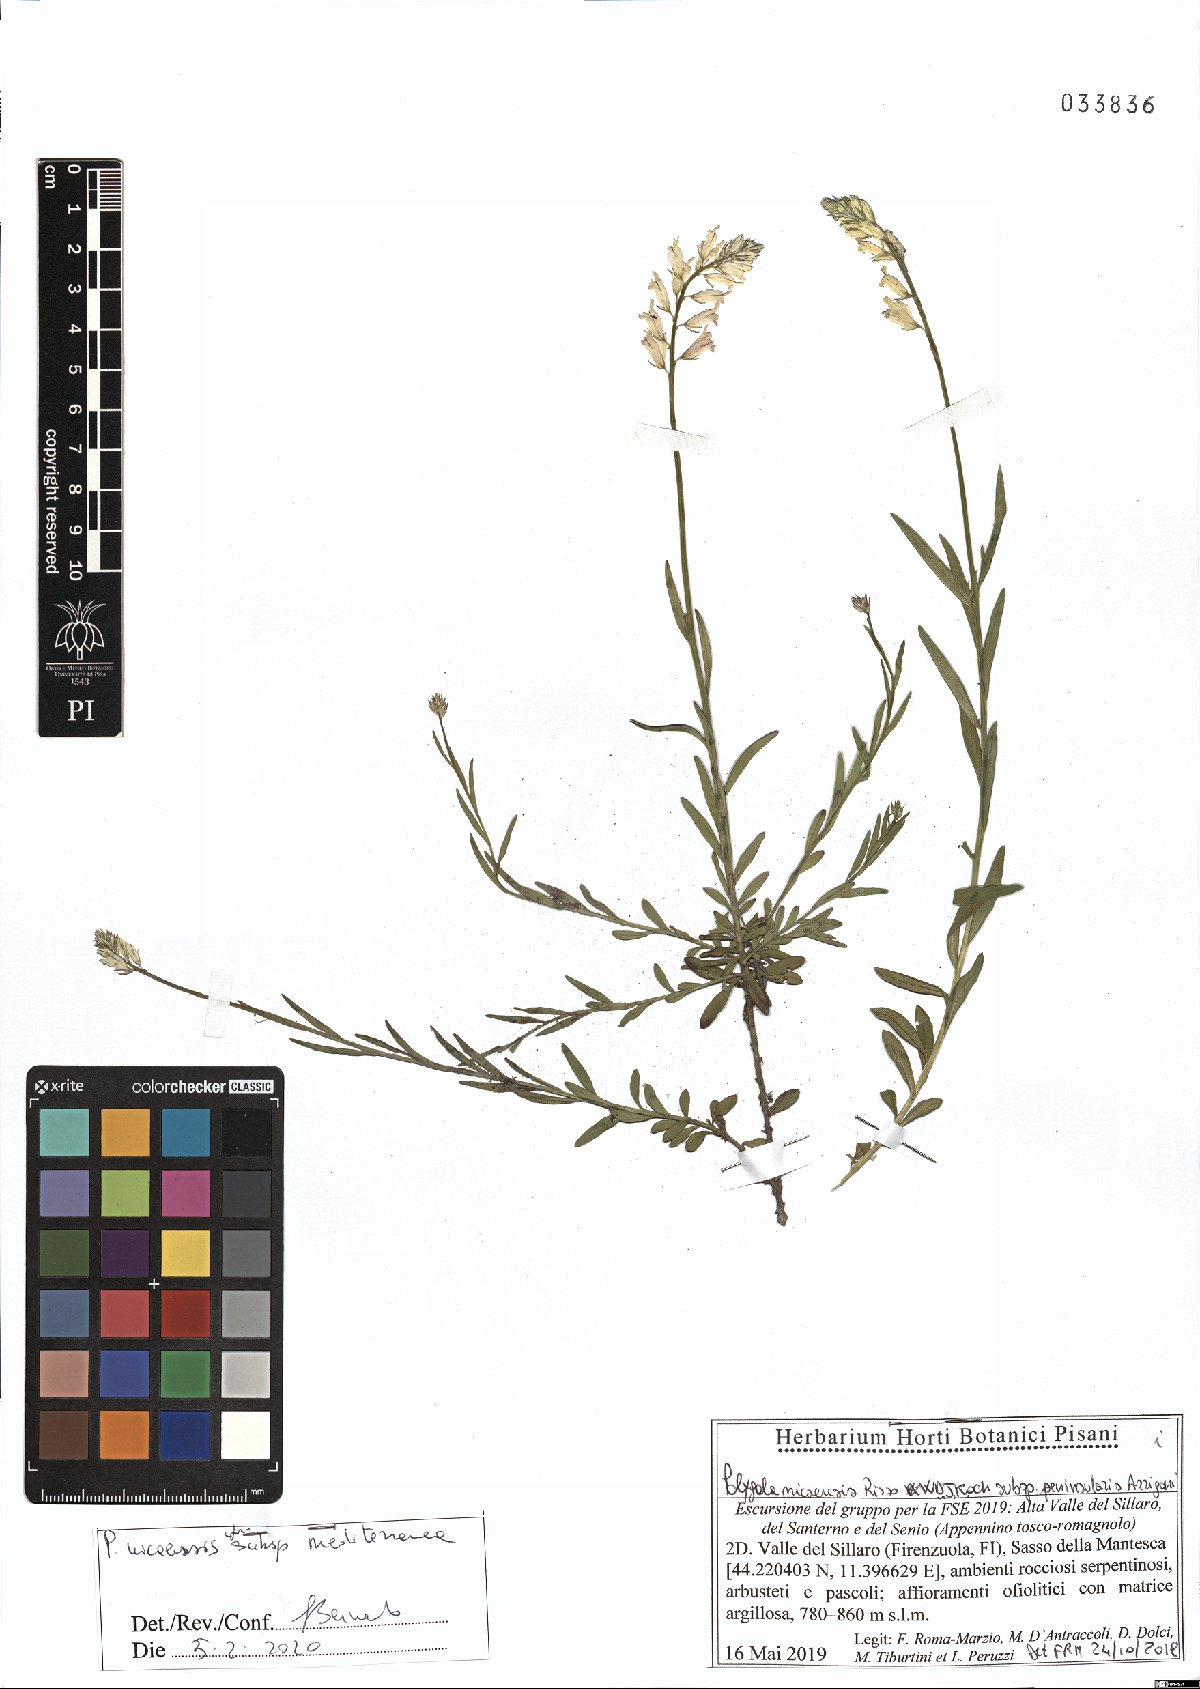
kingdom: Plantae
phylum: Tracheophyta
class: Magnoliopsida
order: Fabales
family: Polygalaceae
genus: Polygala
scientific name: Polygala nicaeensis
